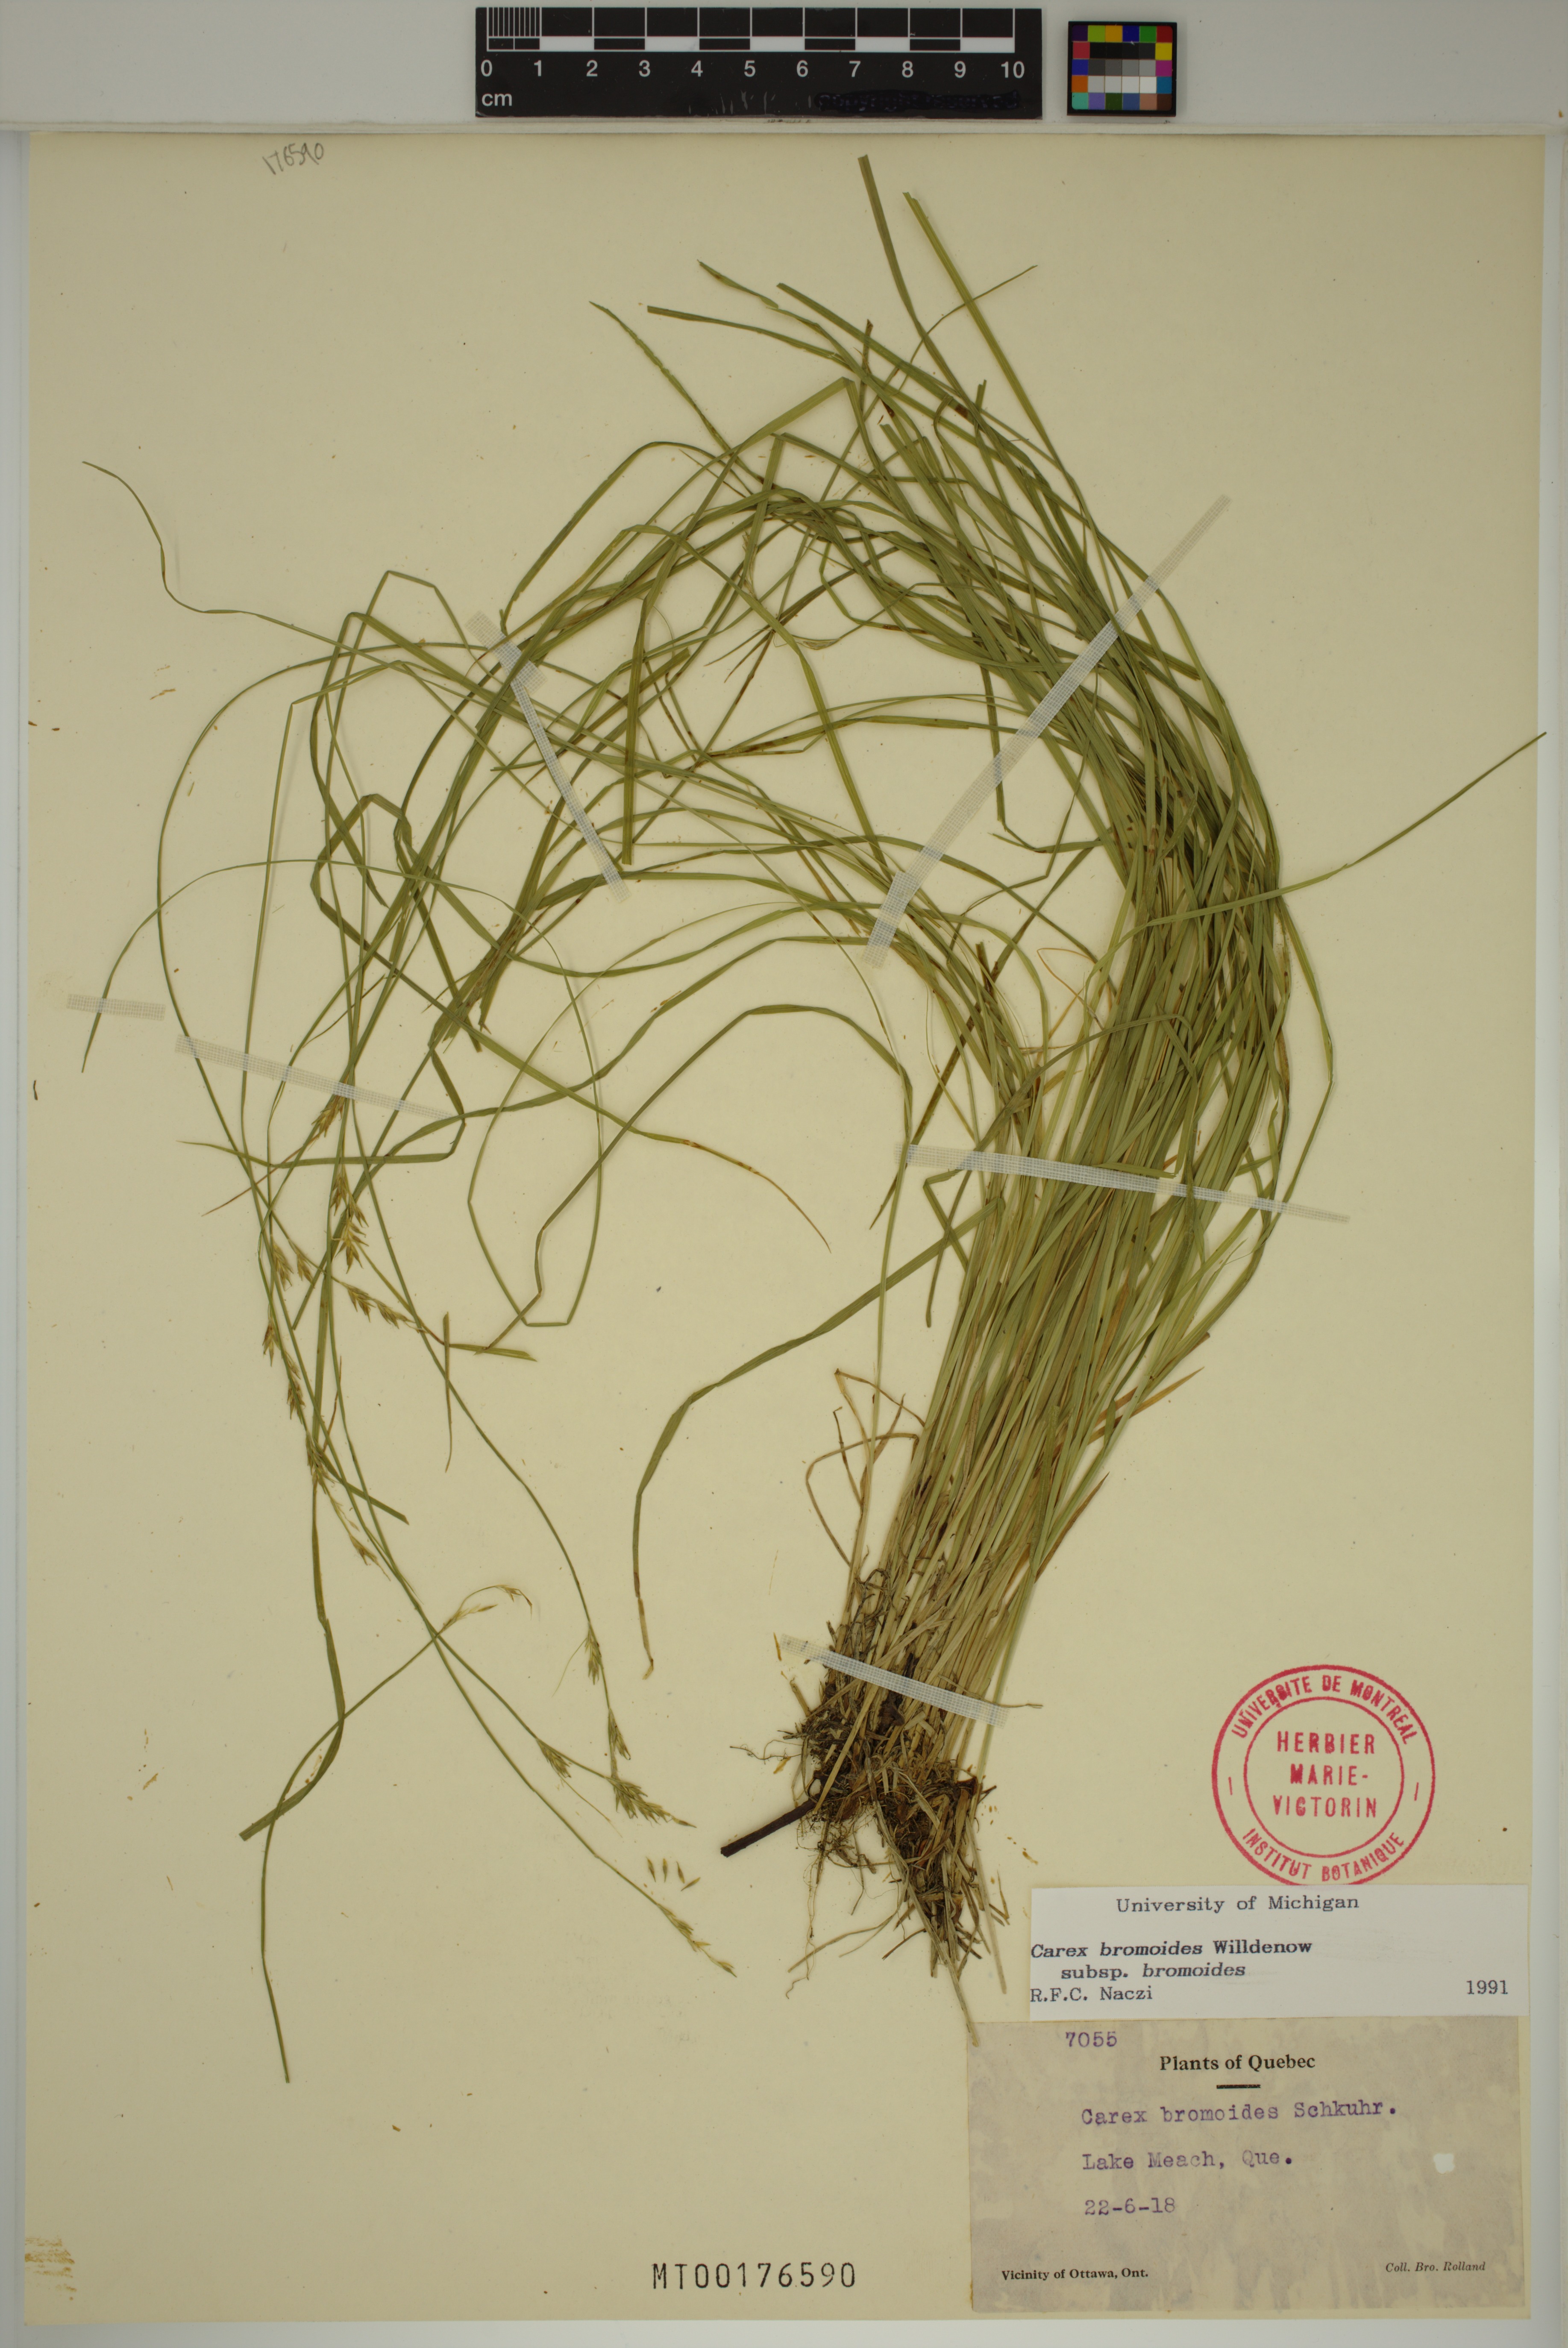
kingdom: Plantae
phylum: Tracheophyta
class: Liliopsida
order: Poales
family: Cyperaceae
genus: Carex
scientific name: Carex bromoides
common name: Brome hummock sedge
